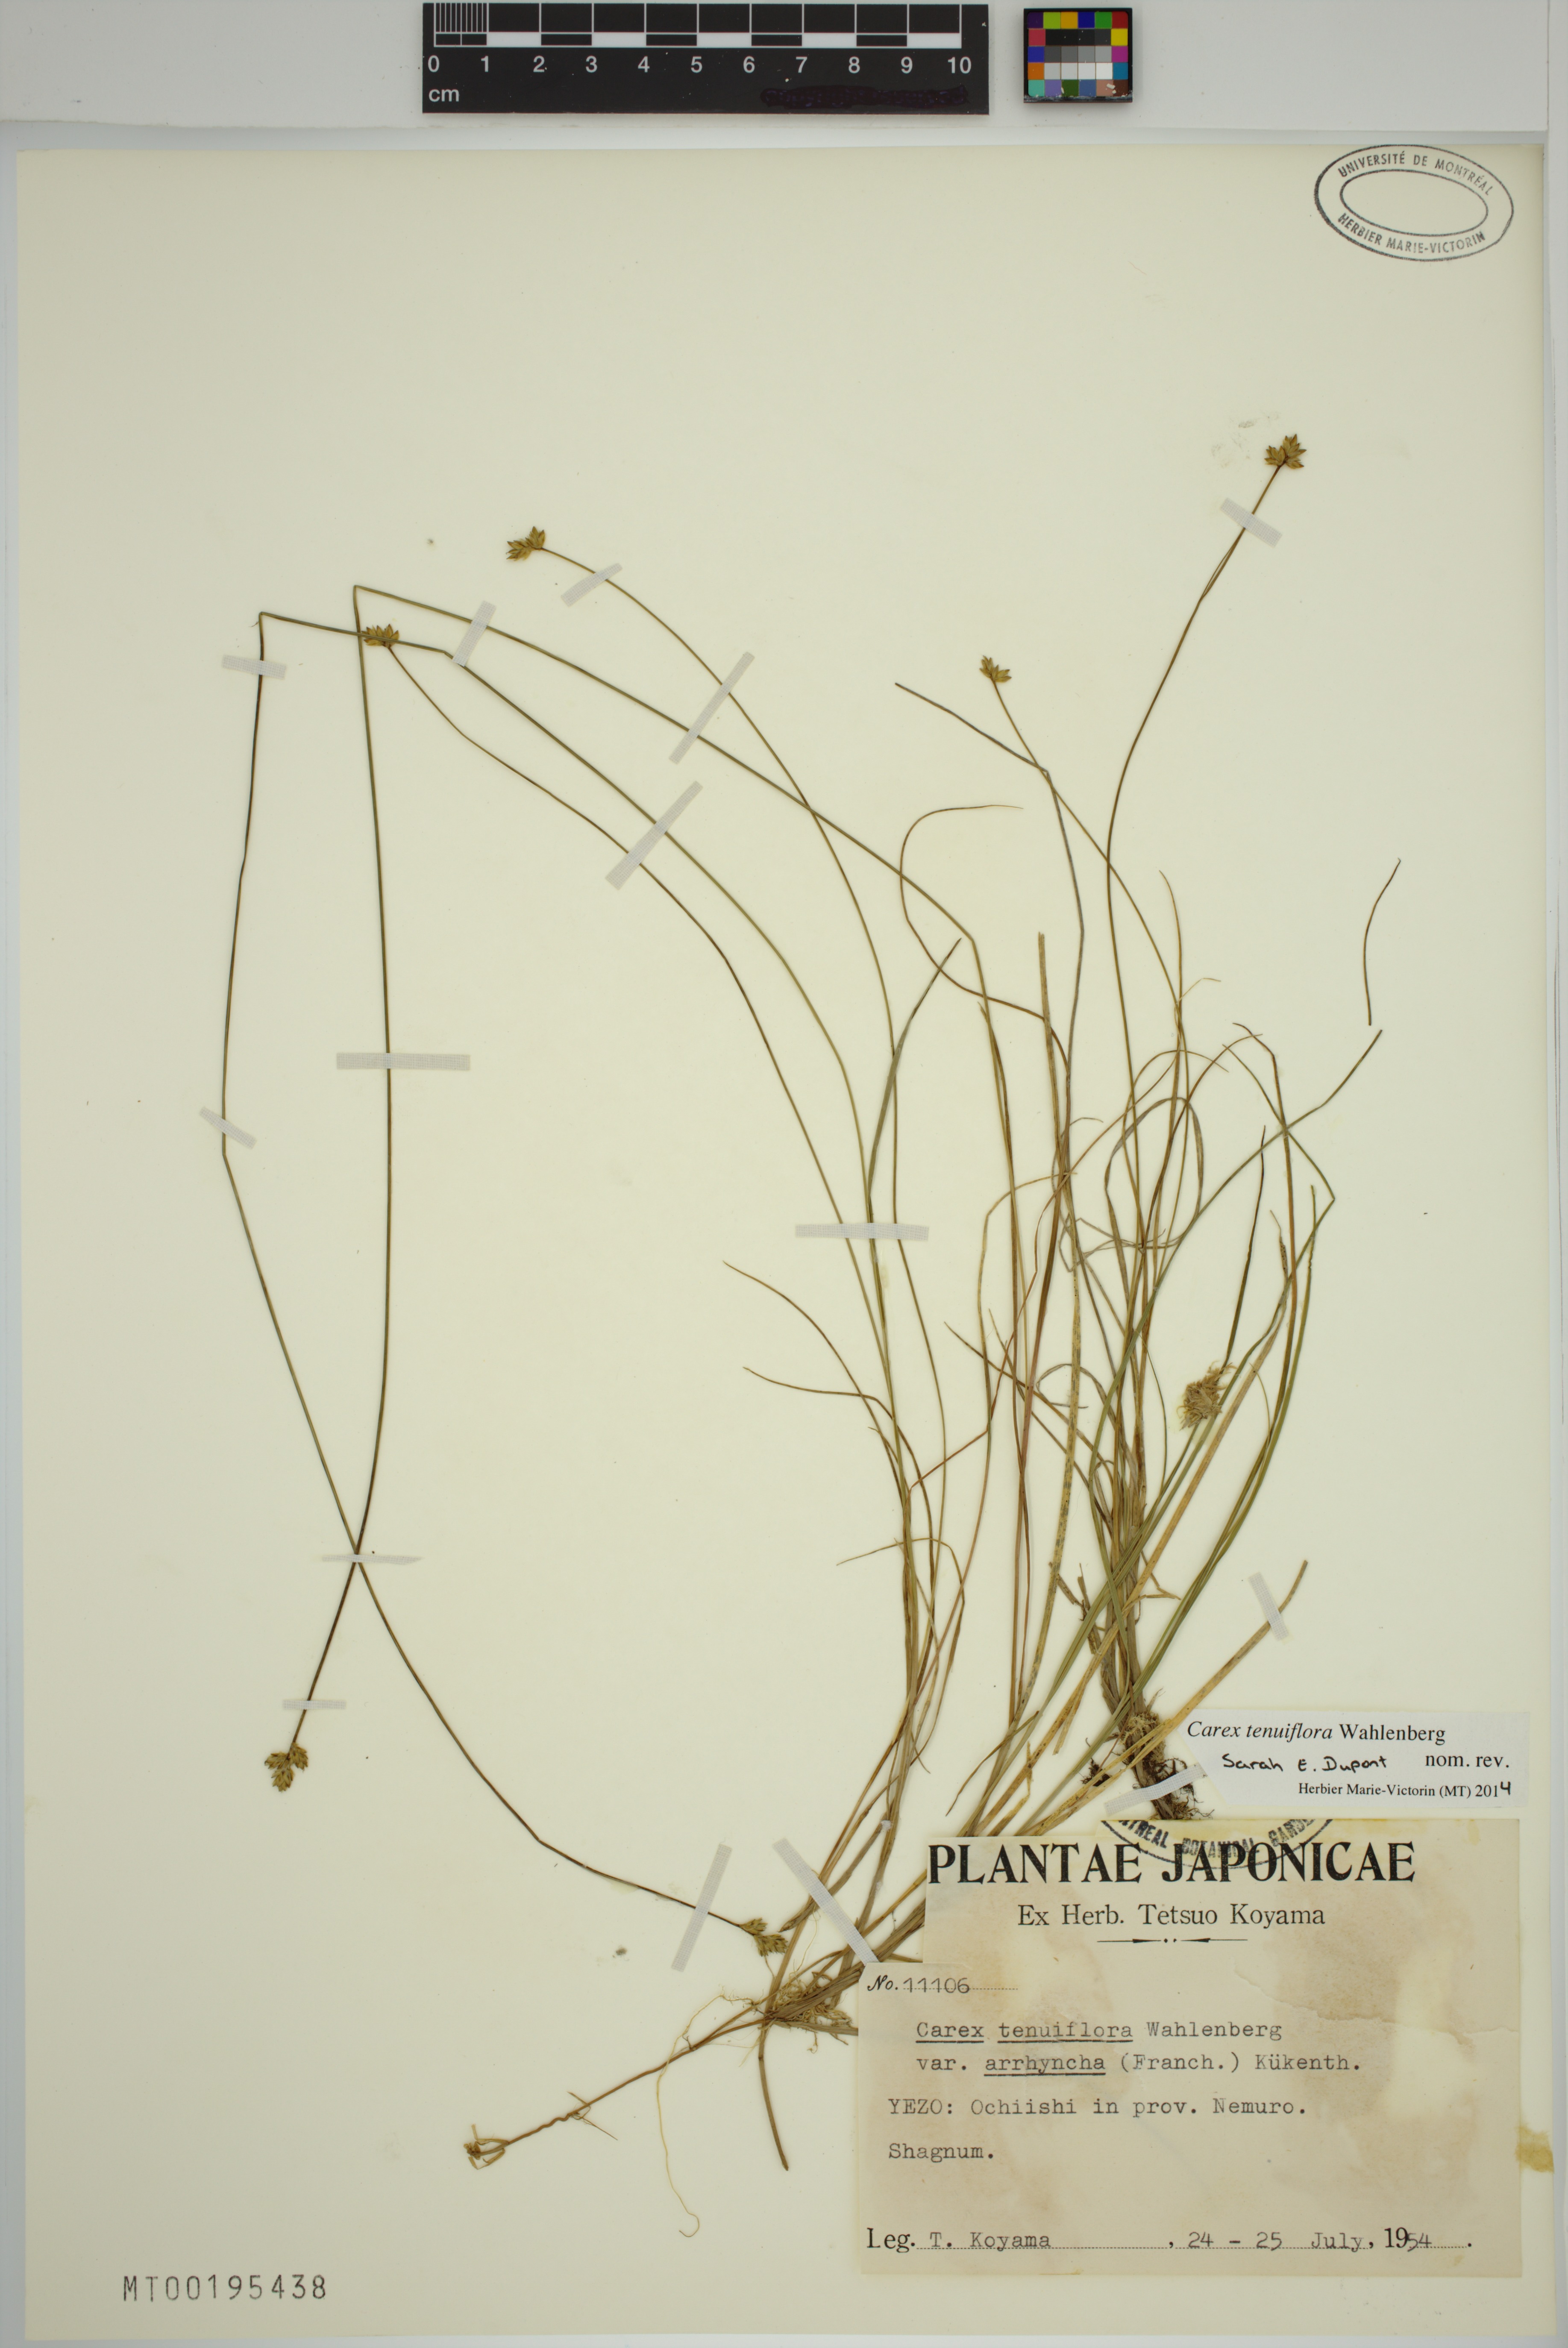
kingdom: Plantae
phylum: Tracheophyta
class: Liliopsida
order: Poales
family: Cyperaceae
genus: Carex
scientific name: Carex tenuiflora
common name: Sparse-flowered sedge
